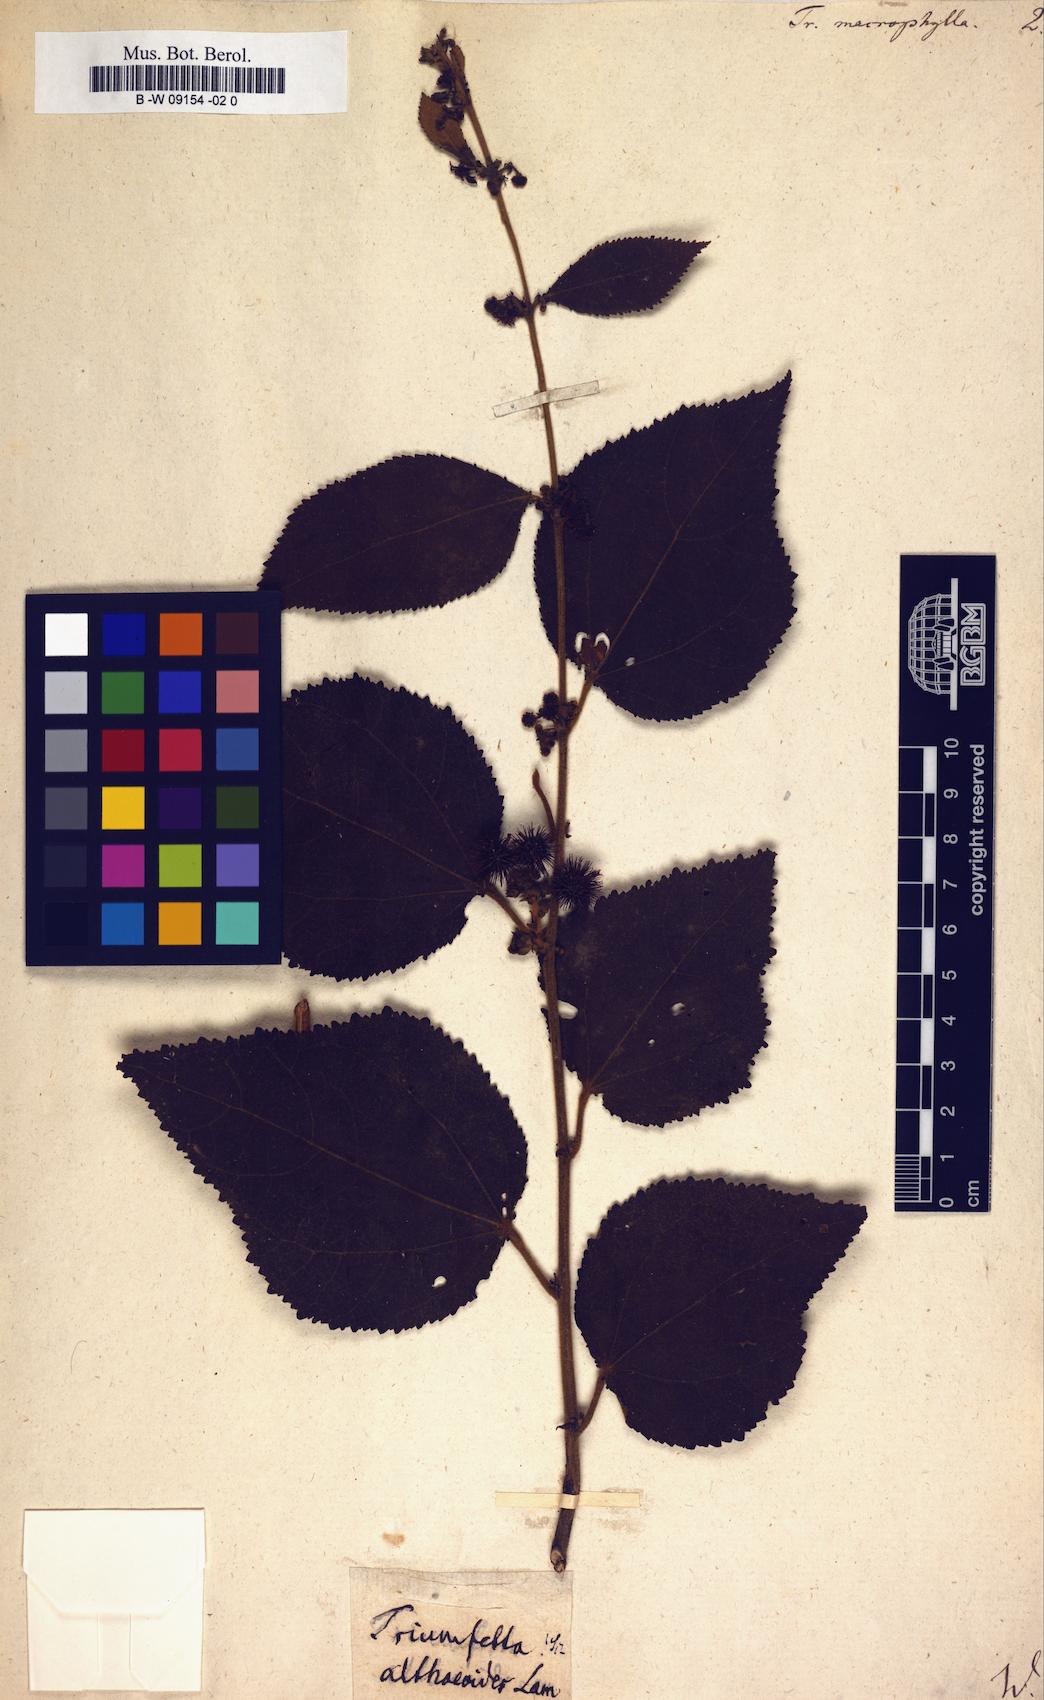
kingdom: Plantae
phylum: Tracheophyta
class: Magnoliopsida
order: Malvales
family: Malvaceae
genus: Triumfetta
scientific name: Triumfetta
